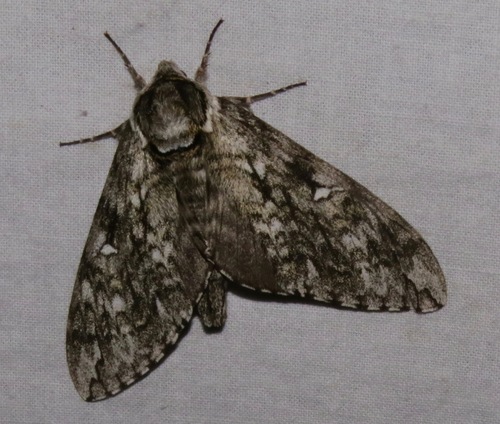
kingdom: Animalia
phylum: Arthropoda
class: Insecta
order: Lepidoptera
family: Sphingidae
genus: Ceratomia
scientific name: Ceratomia undulosa
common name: Waved sphinx
